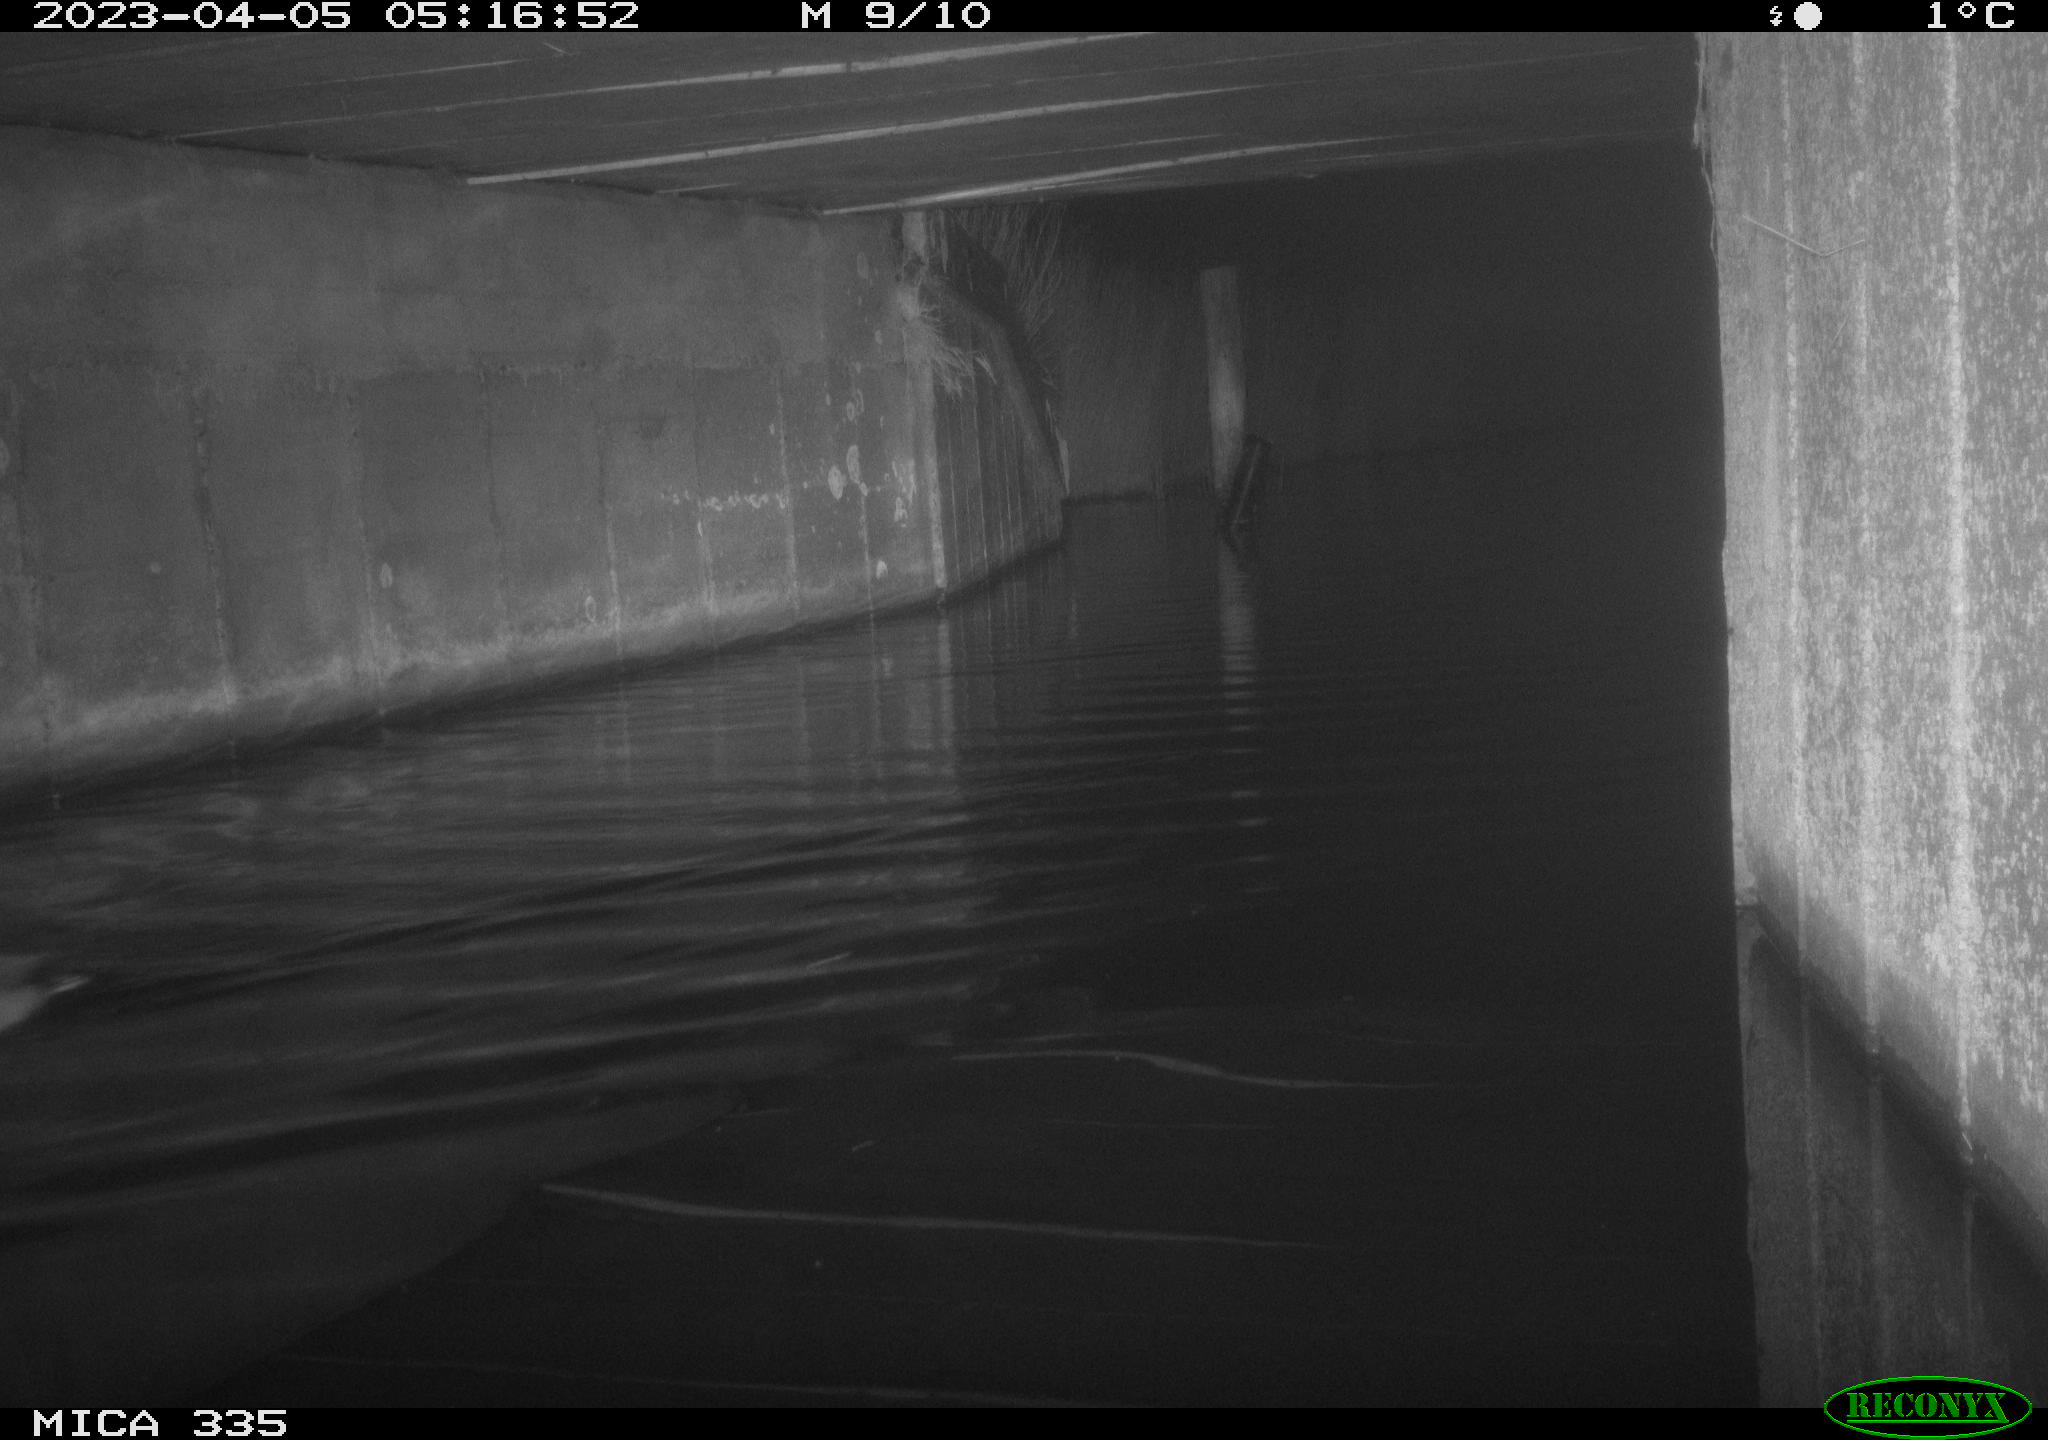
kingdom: Animalia
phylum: Chordata
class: Aves
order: Anseriformes
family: Anatidae
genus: Anas
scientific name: Anas
